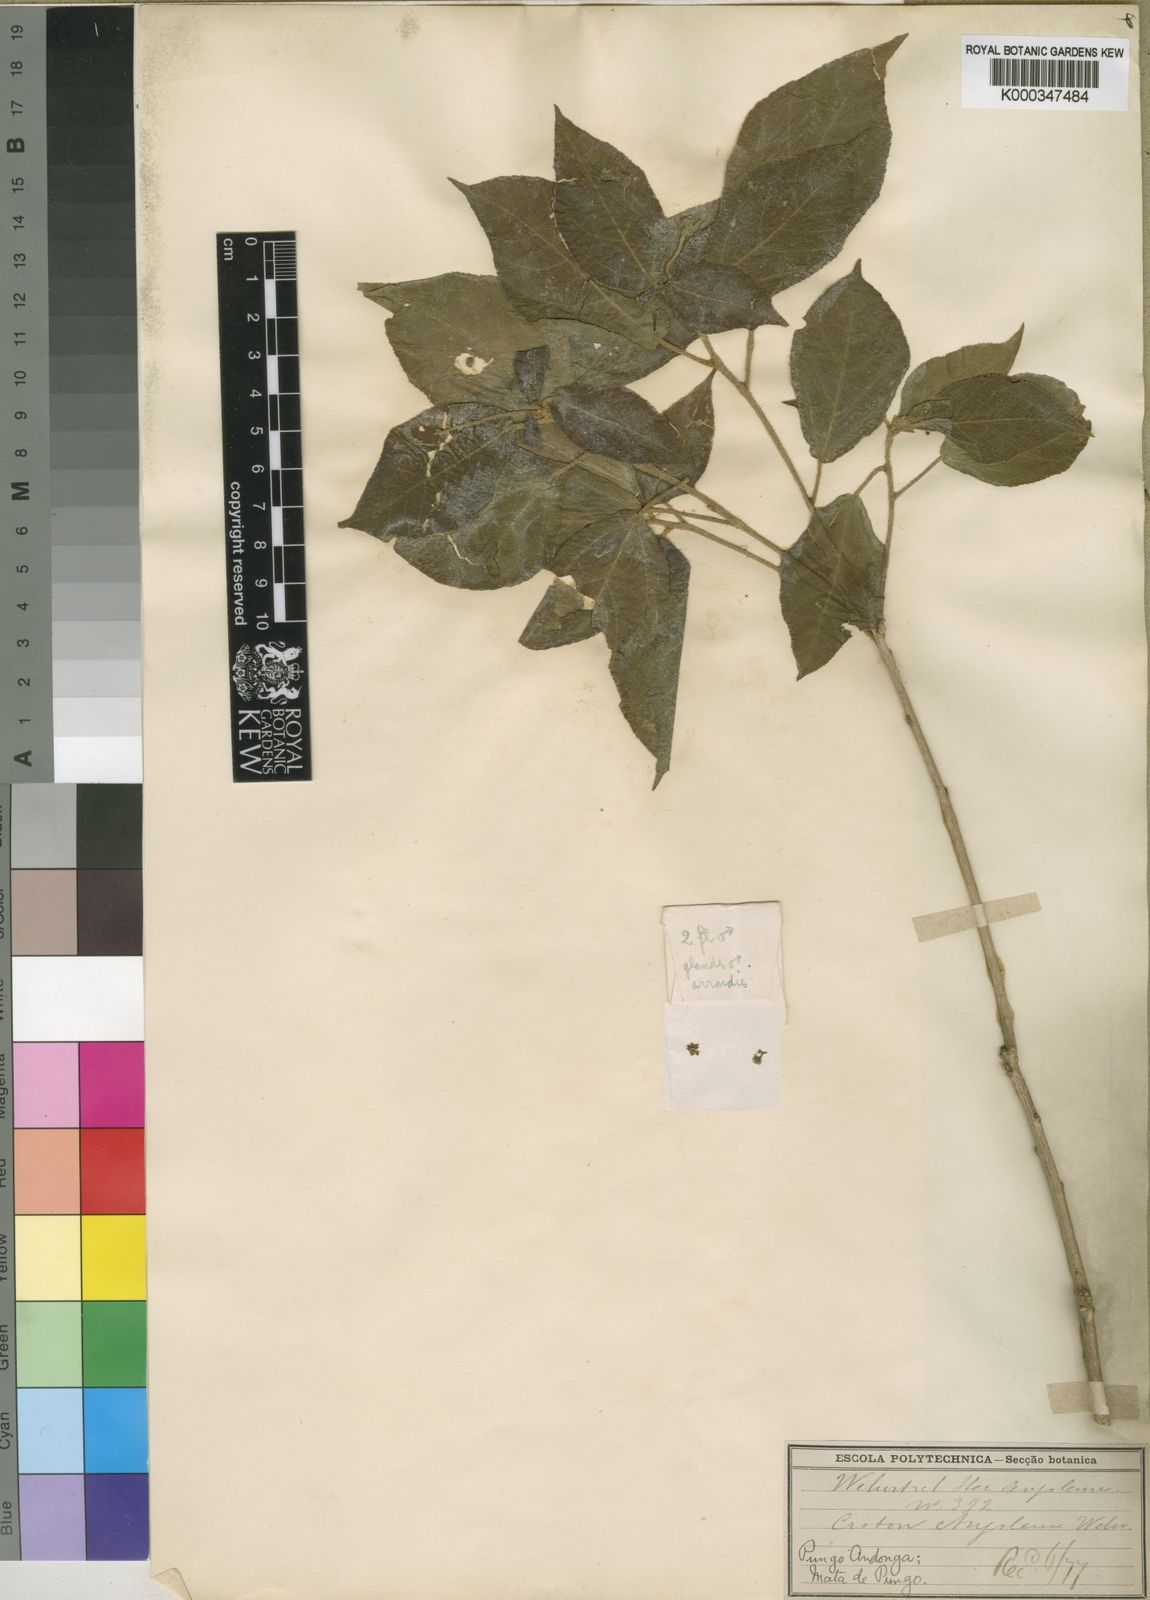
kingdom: Plantae
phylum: Tracheophyta
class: Magnoliopsida
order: Malpighiales
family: Euphorbiaceae
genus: Croton
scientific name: Croton
